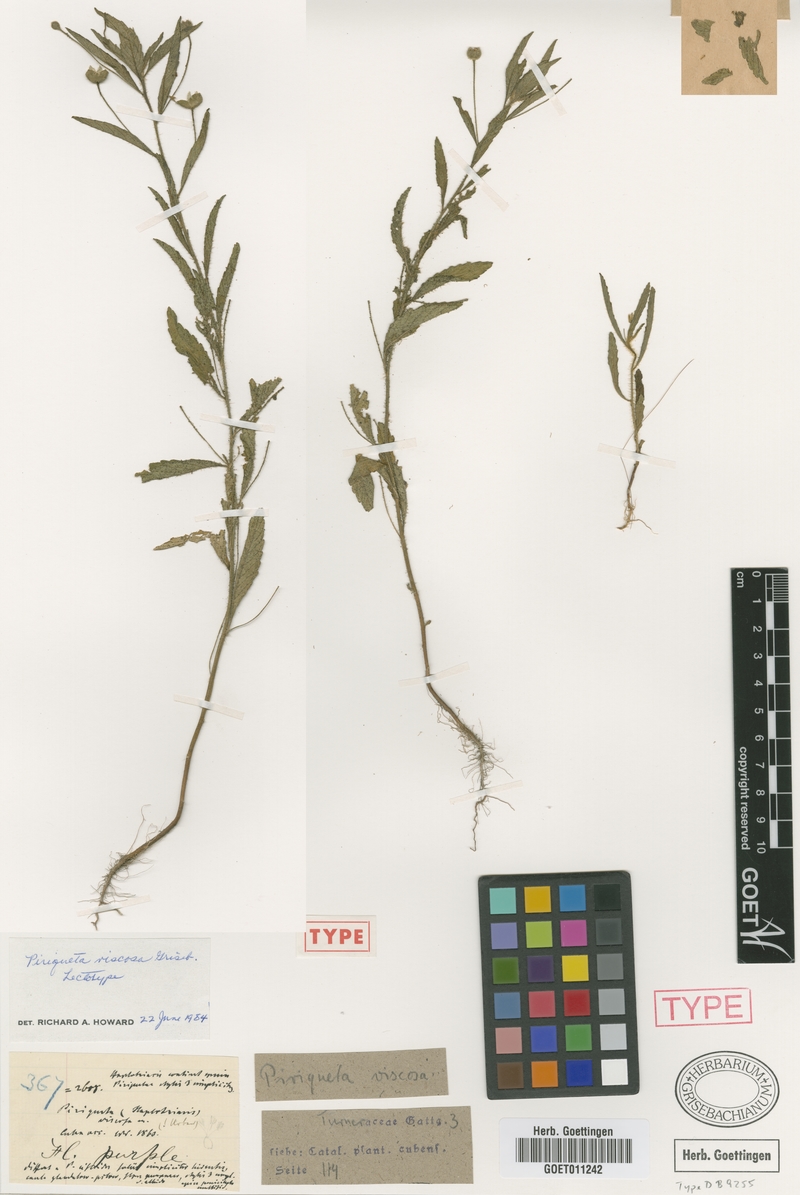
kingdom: Plantae
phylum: Tracheophyta
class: Magnoliopsida
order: Malpighiales
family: Turneraceae
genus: Piriqueta
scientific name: Piriqueta viscosa
